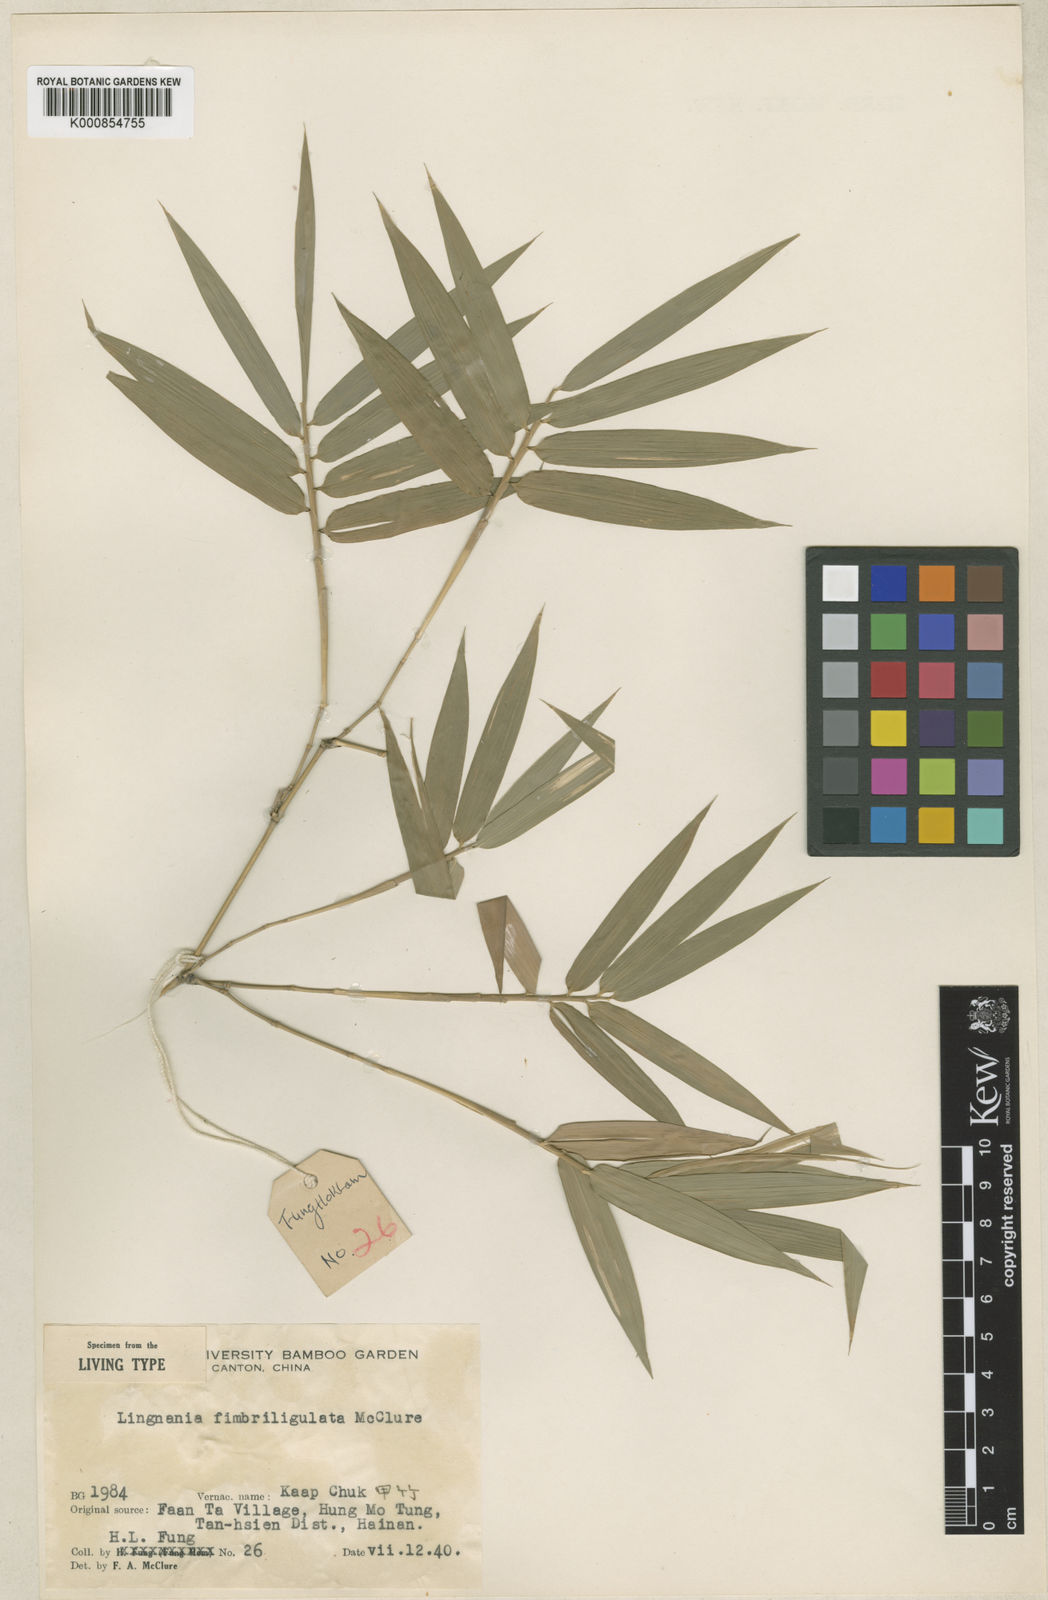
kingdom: Plantae
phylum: Tracheophyta
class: Liliopsida
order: Poales
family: Poaceae
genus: Bambusa
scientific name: Bambusa remotiflora
